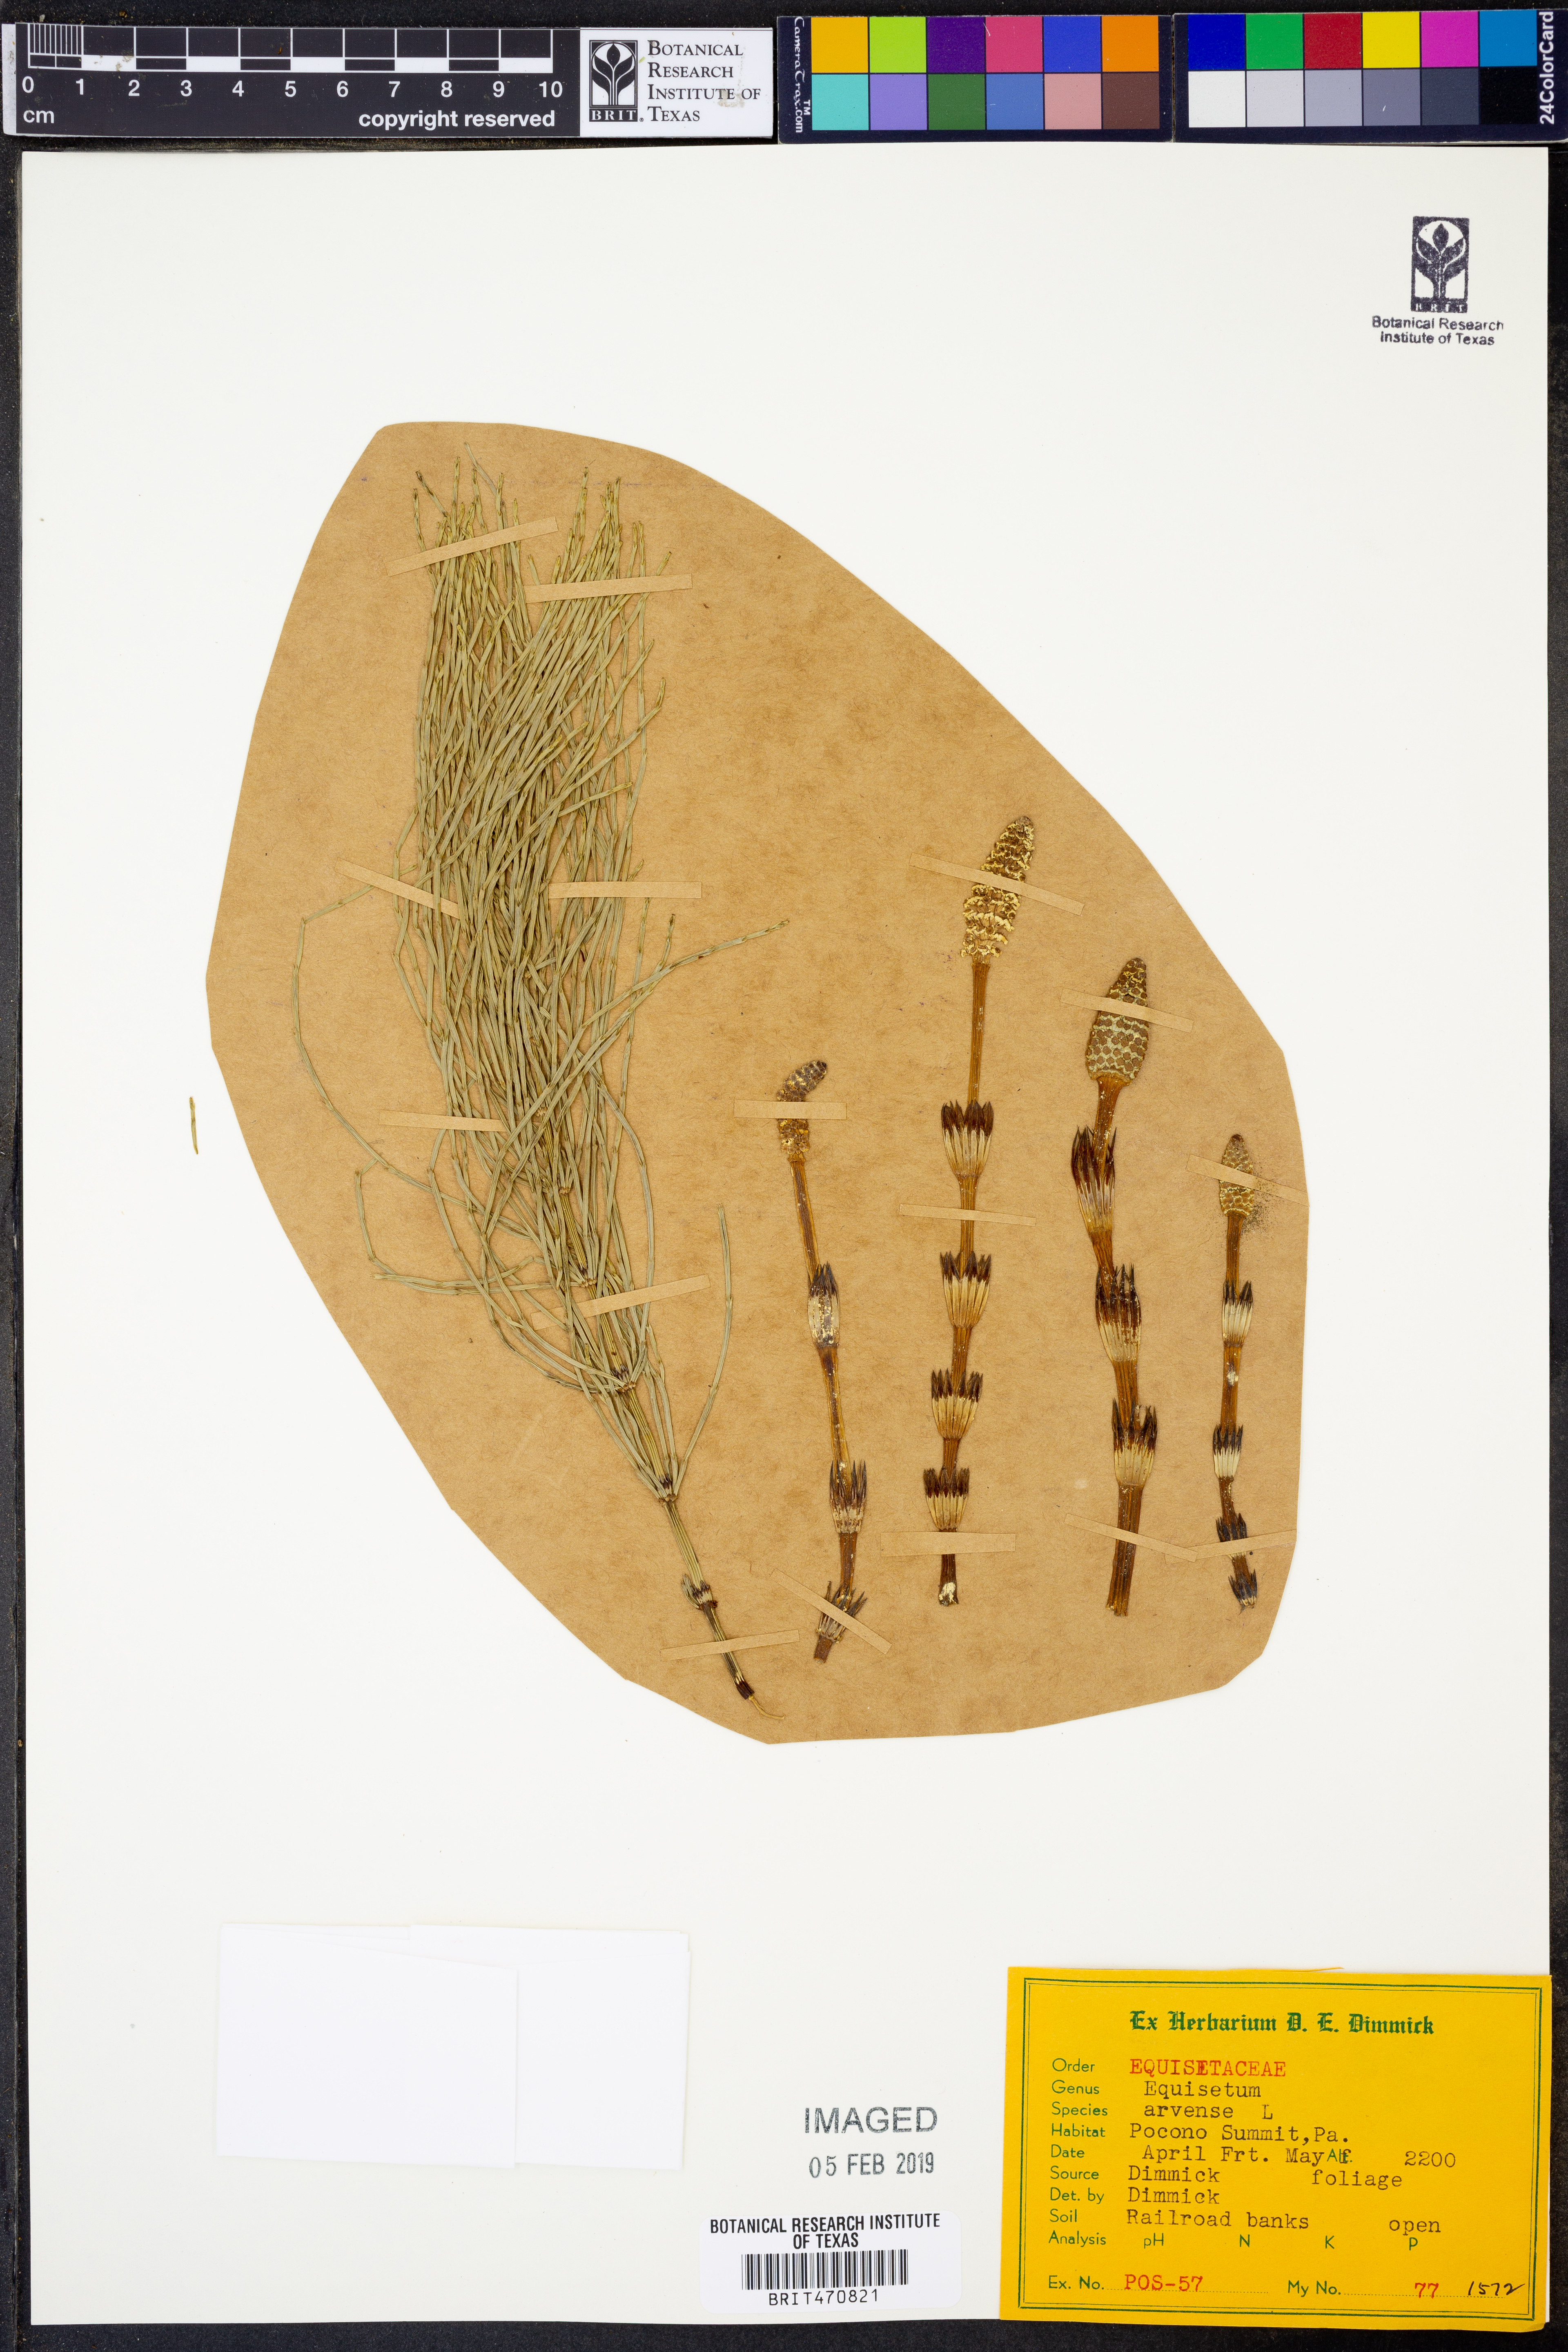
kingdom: Plantae
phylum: Tracheophyta
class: Polypodiopsida
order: Equisetales
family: Equisetaceae
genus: Equisetum
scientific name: Equisetum arvense
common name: Field horsetail
